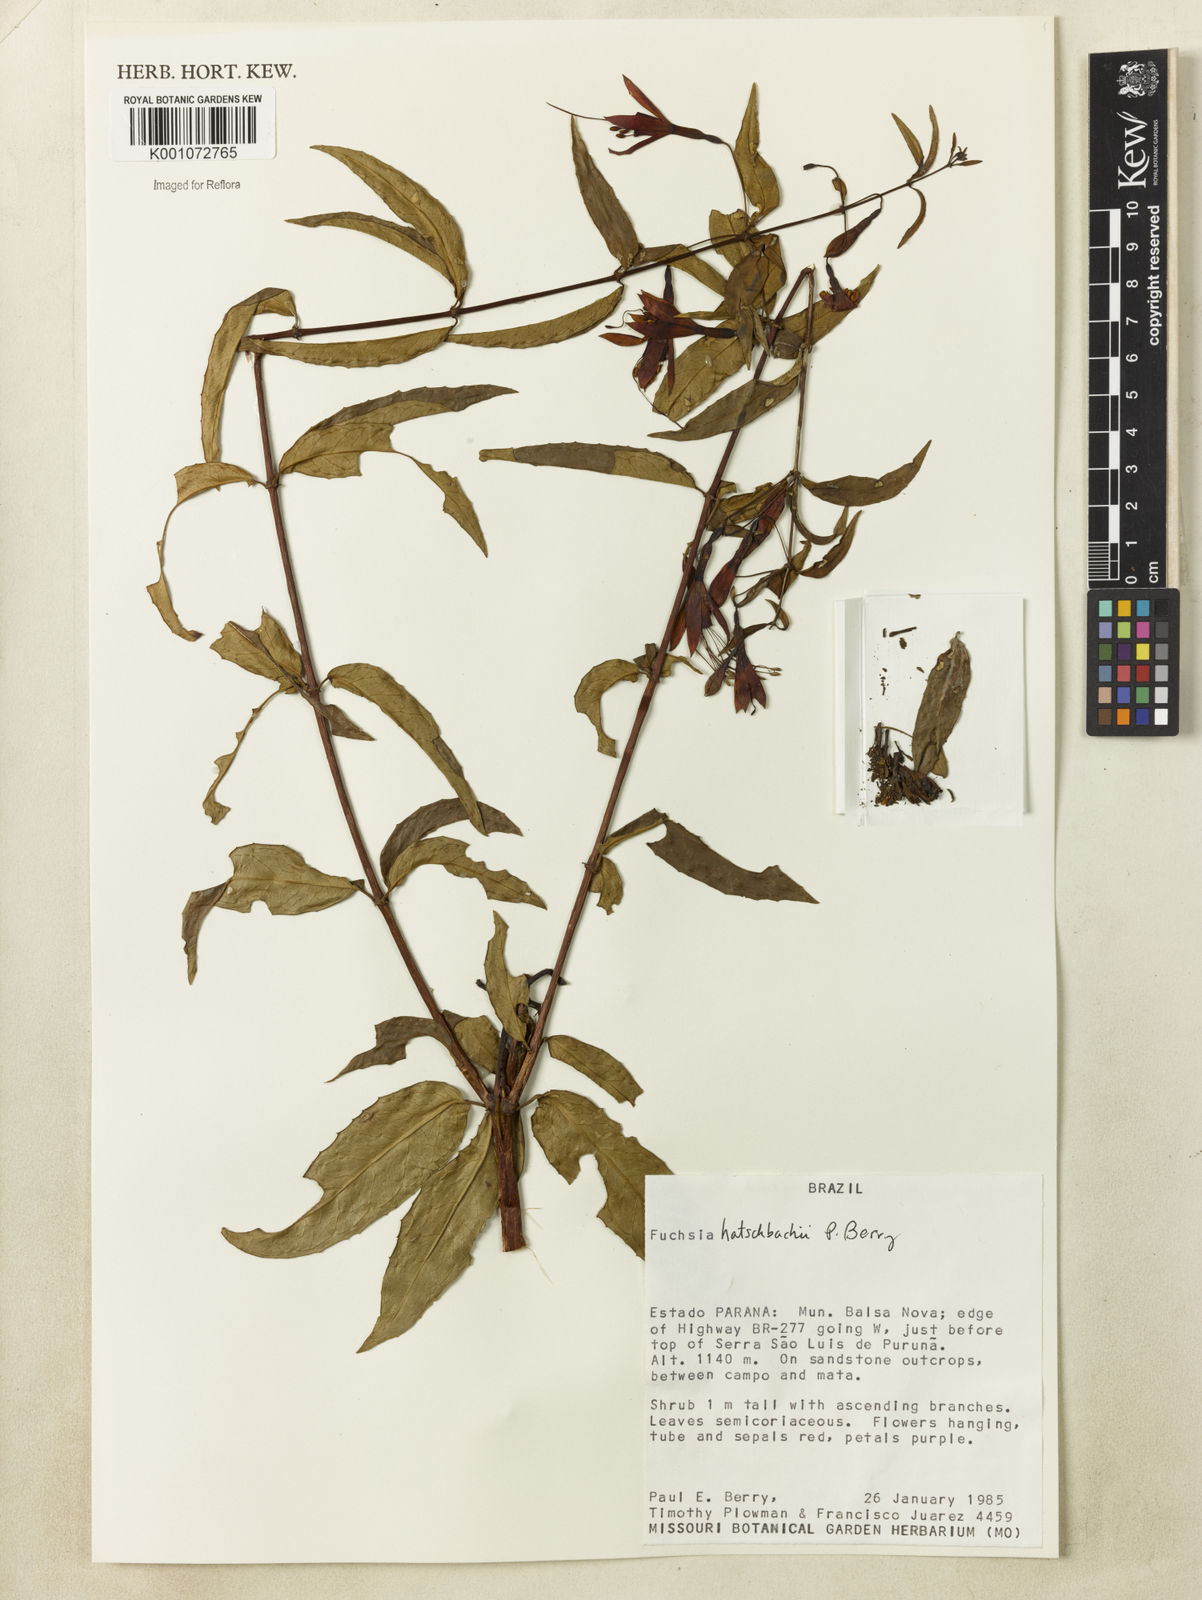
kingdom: Plantae
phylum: Tracheophyta
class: Magnoliopsida
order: Myrtales
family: Onagraceae
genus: Fuchsia
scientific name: Fuchsia hatschbachii
